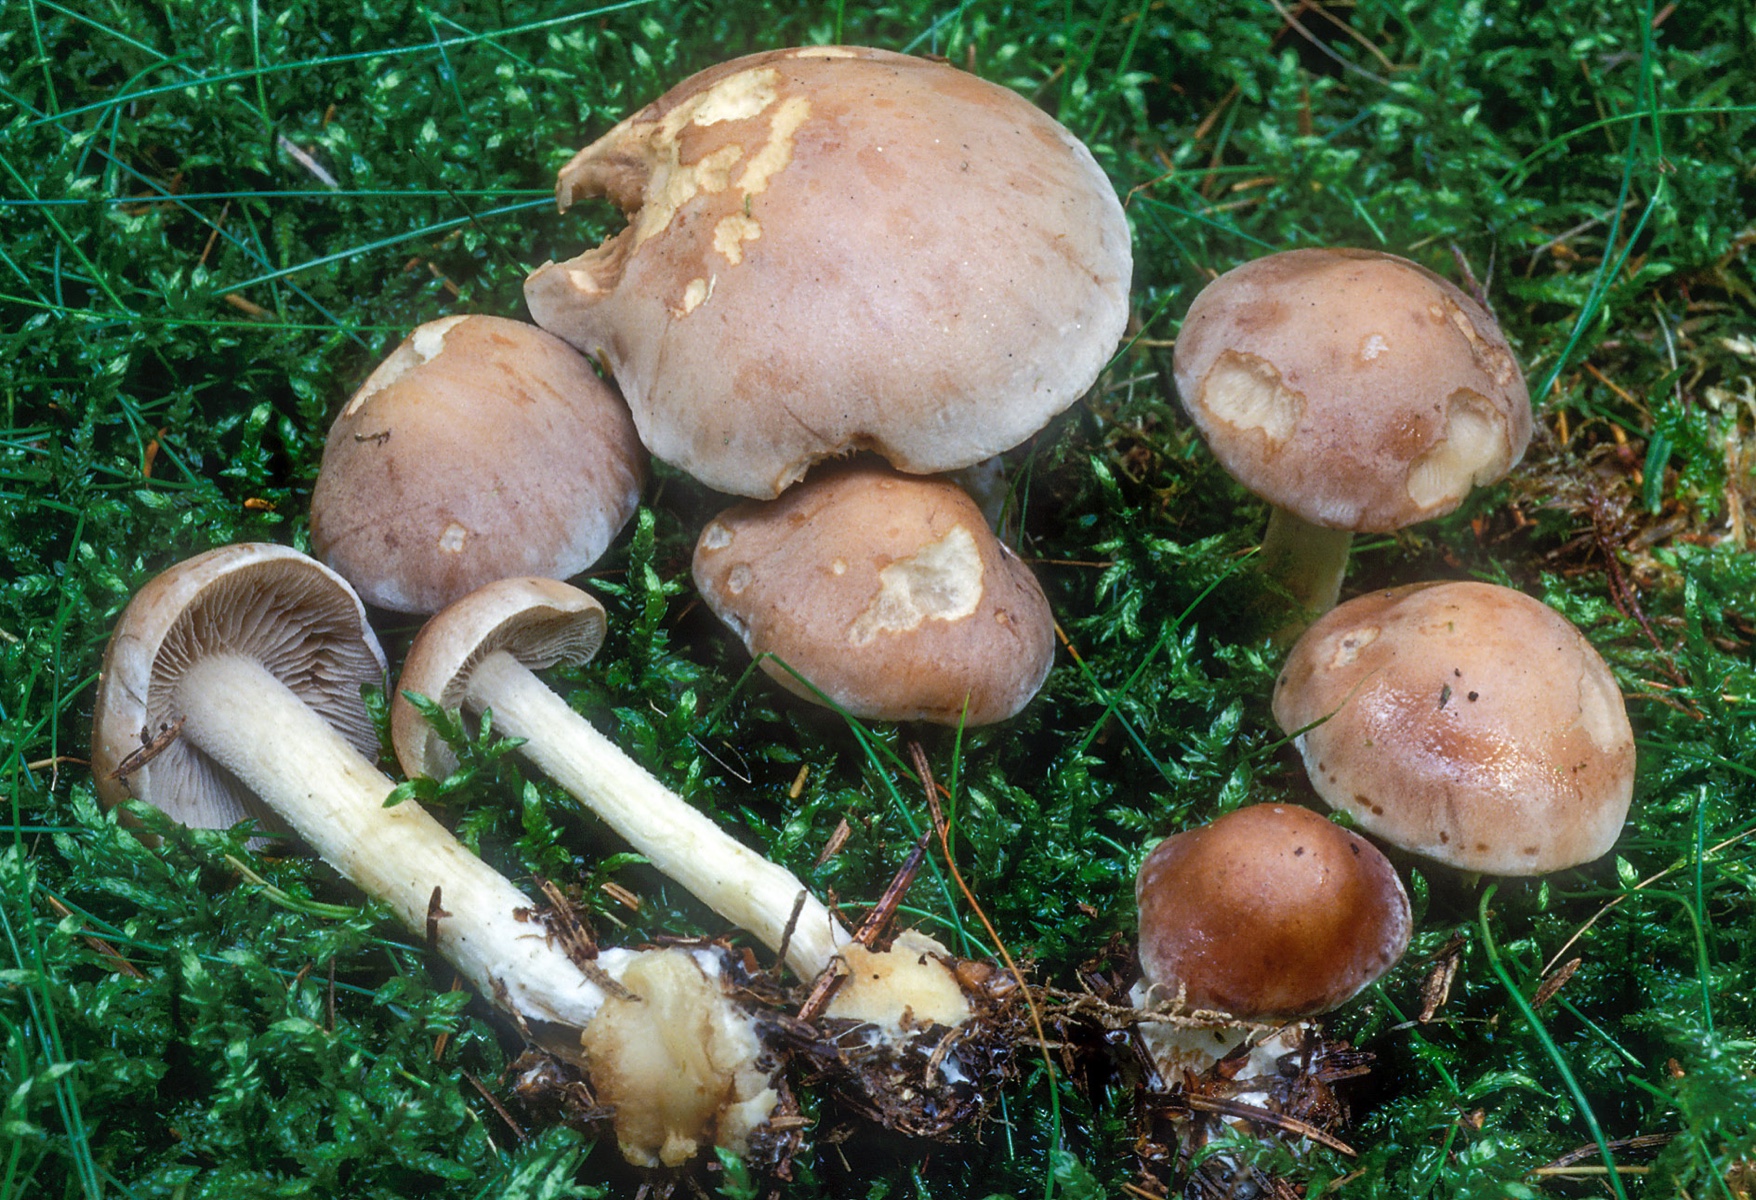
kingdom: Fungi
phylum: Basidiomycota
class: Agaricomycetes
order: Agaricales
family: Hymenogastraceae
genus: Hebeloma
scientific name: Hebeloma incarnatulum
